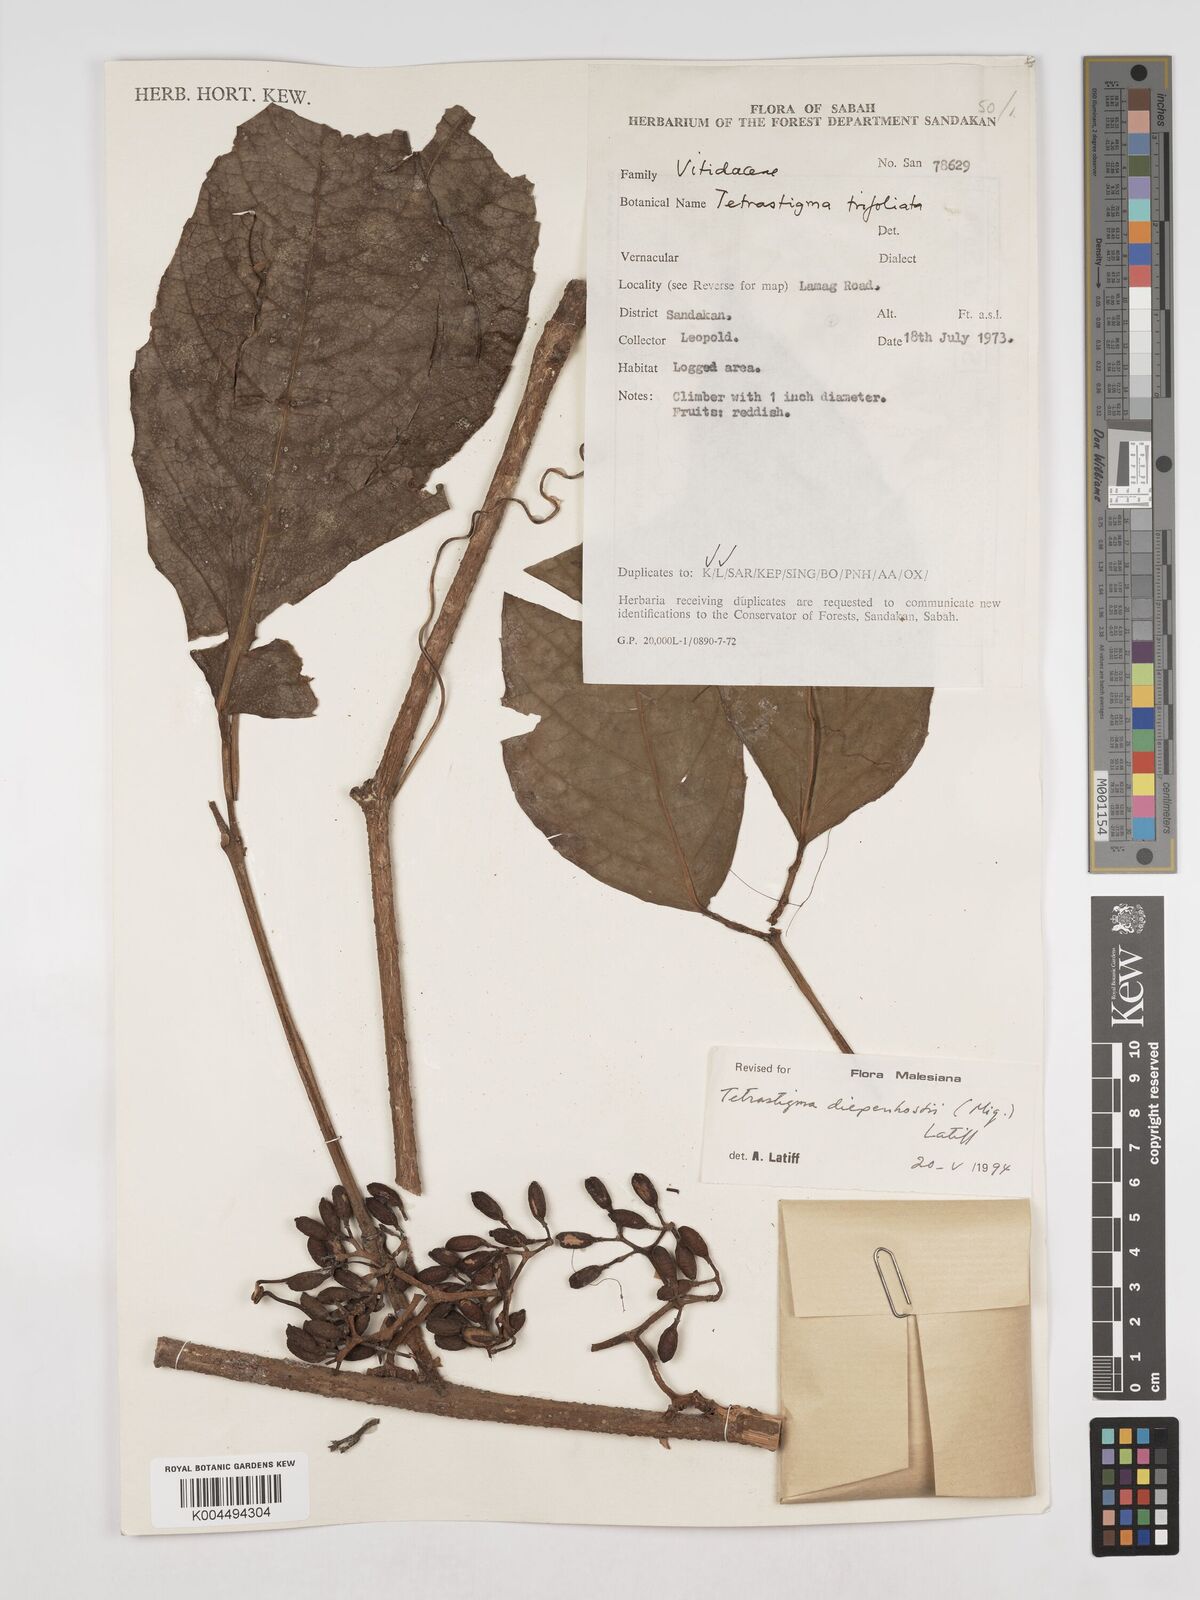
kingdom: Plantae
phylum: Tracheophyta
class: Magnoliopsida
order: Vitales
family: Vitaceae
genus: Tetrastigma
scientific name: Tetrastigma diepenhorstii
